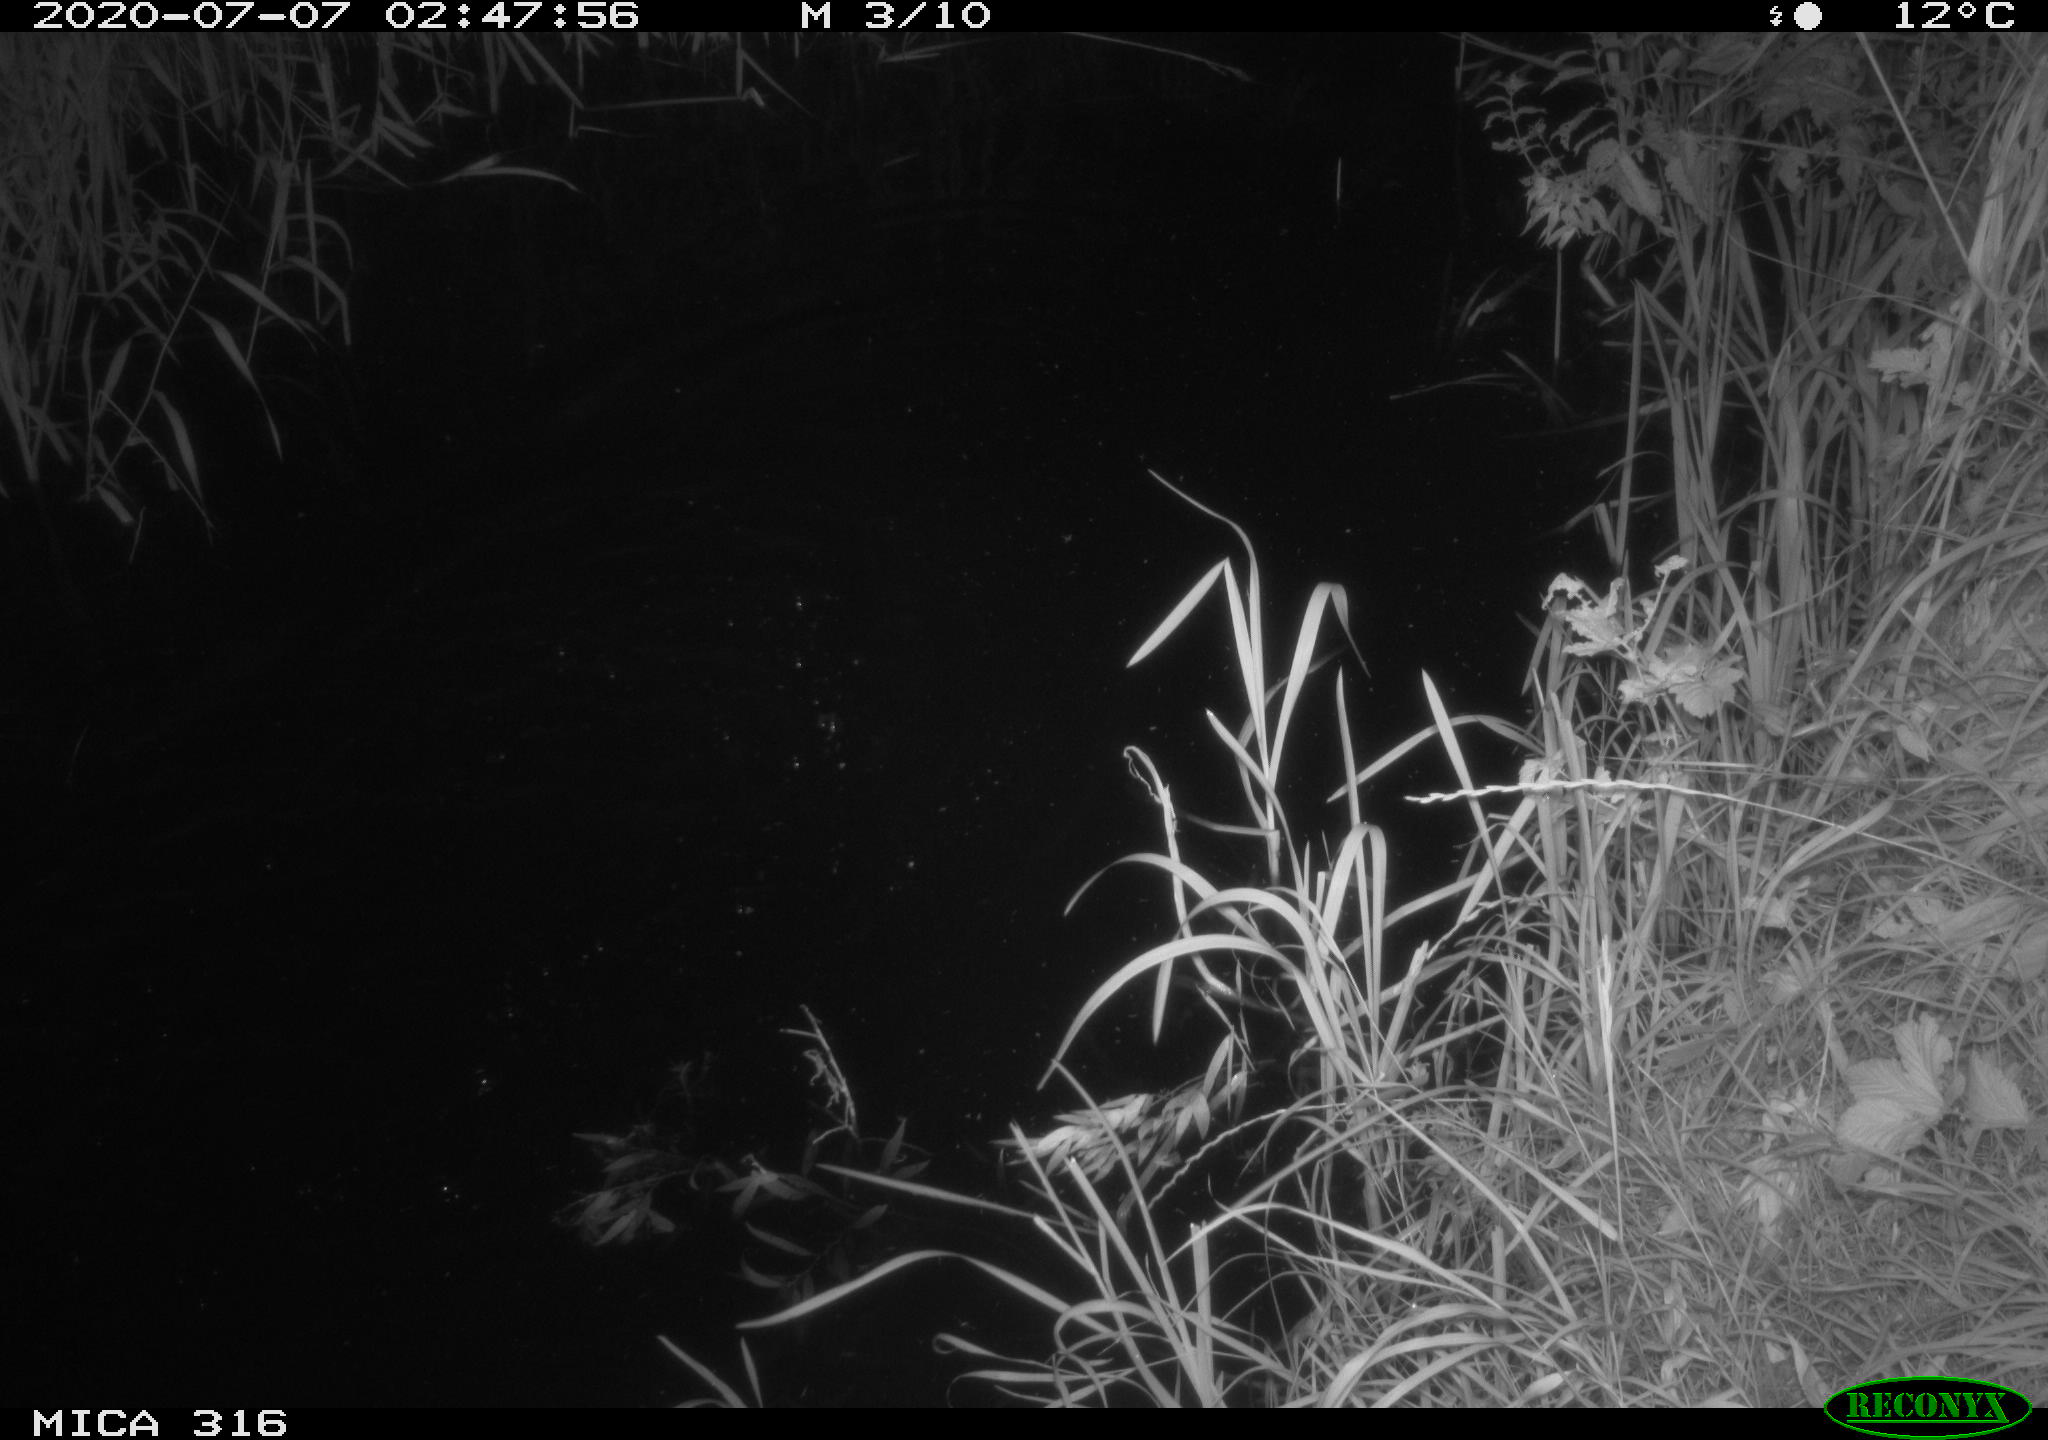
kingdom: Animalia
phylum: Chordata
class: Mammalia
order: Rodentia
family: Cricetidae
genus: Ondatra
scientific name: Ondatra zibethicus
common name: Muskrat
